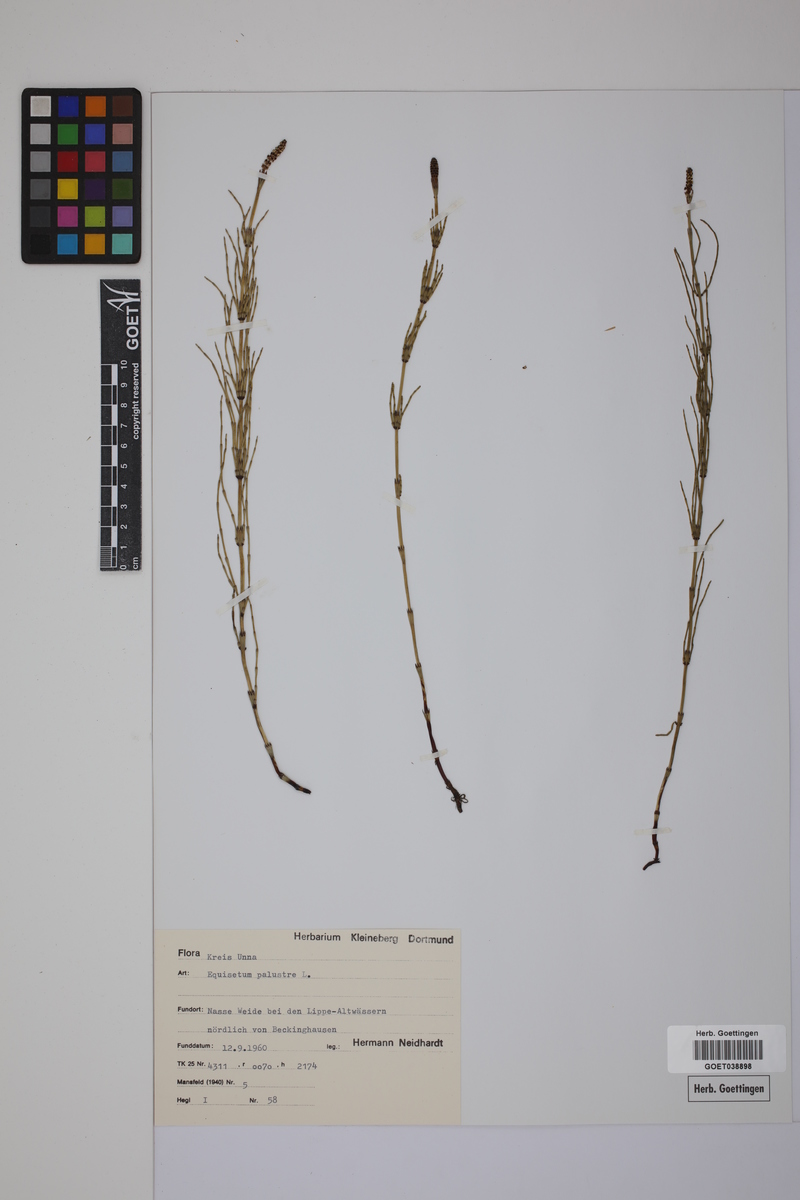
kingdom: Plantae
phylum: Tracheophyta
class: Polypodiopsida
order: Equisetales
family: Equisetaceae
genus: Equisetum
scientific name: Equisetum palustre
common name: Marsh horsetail
